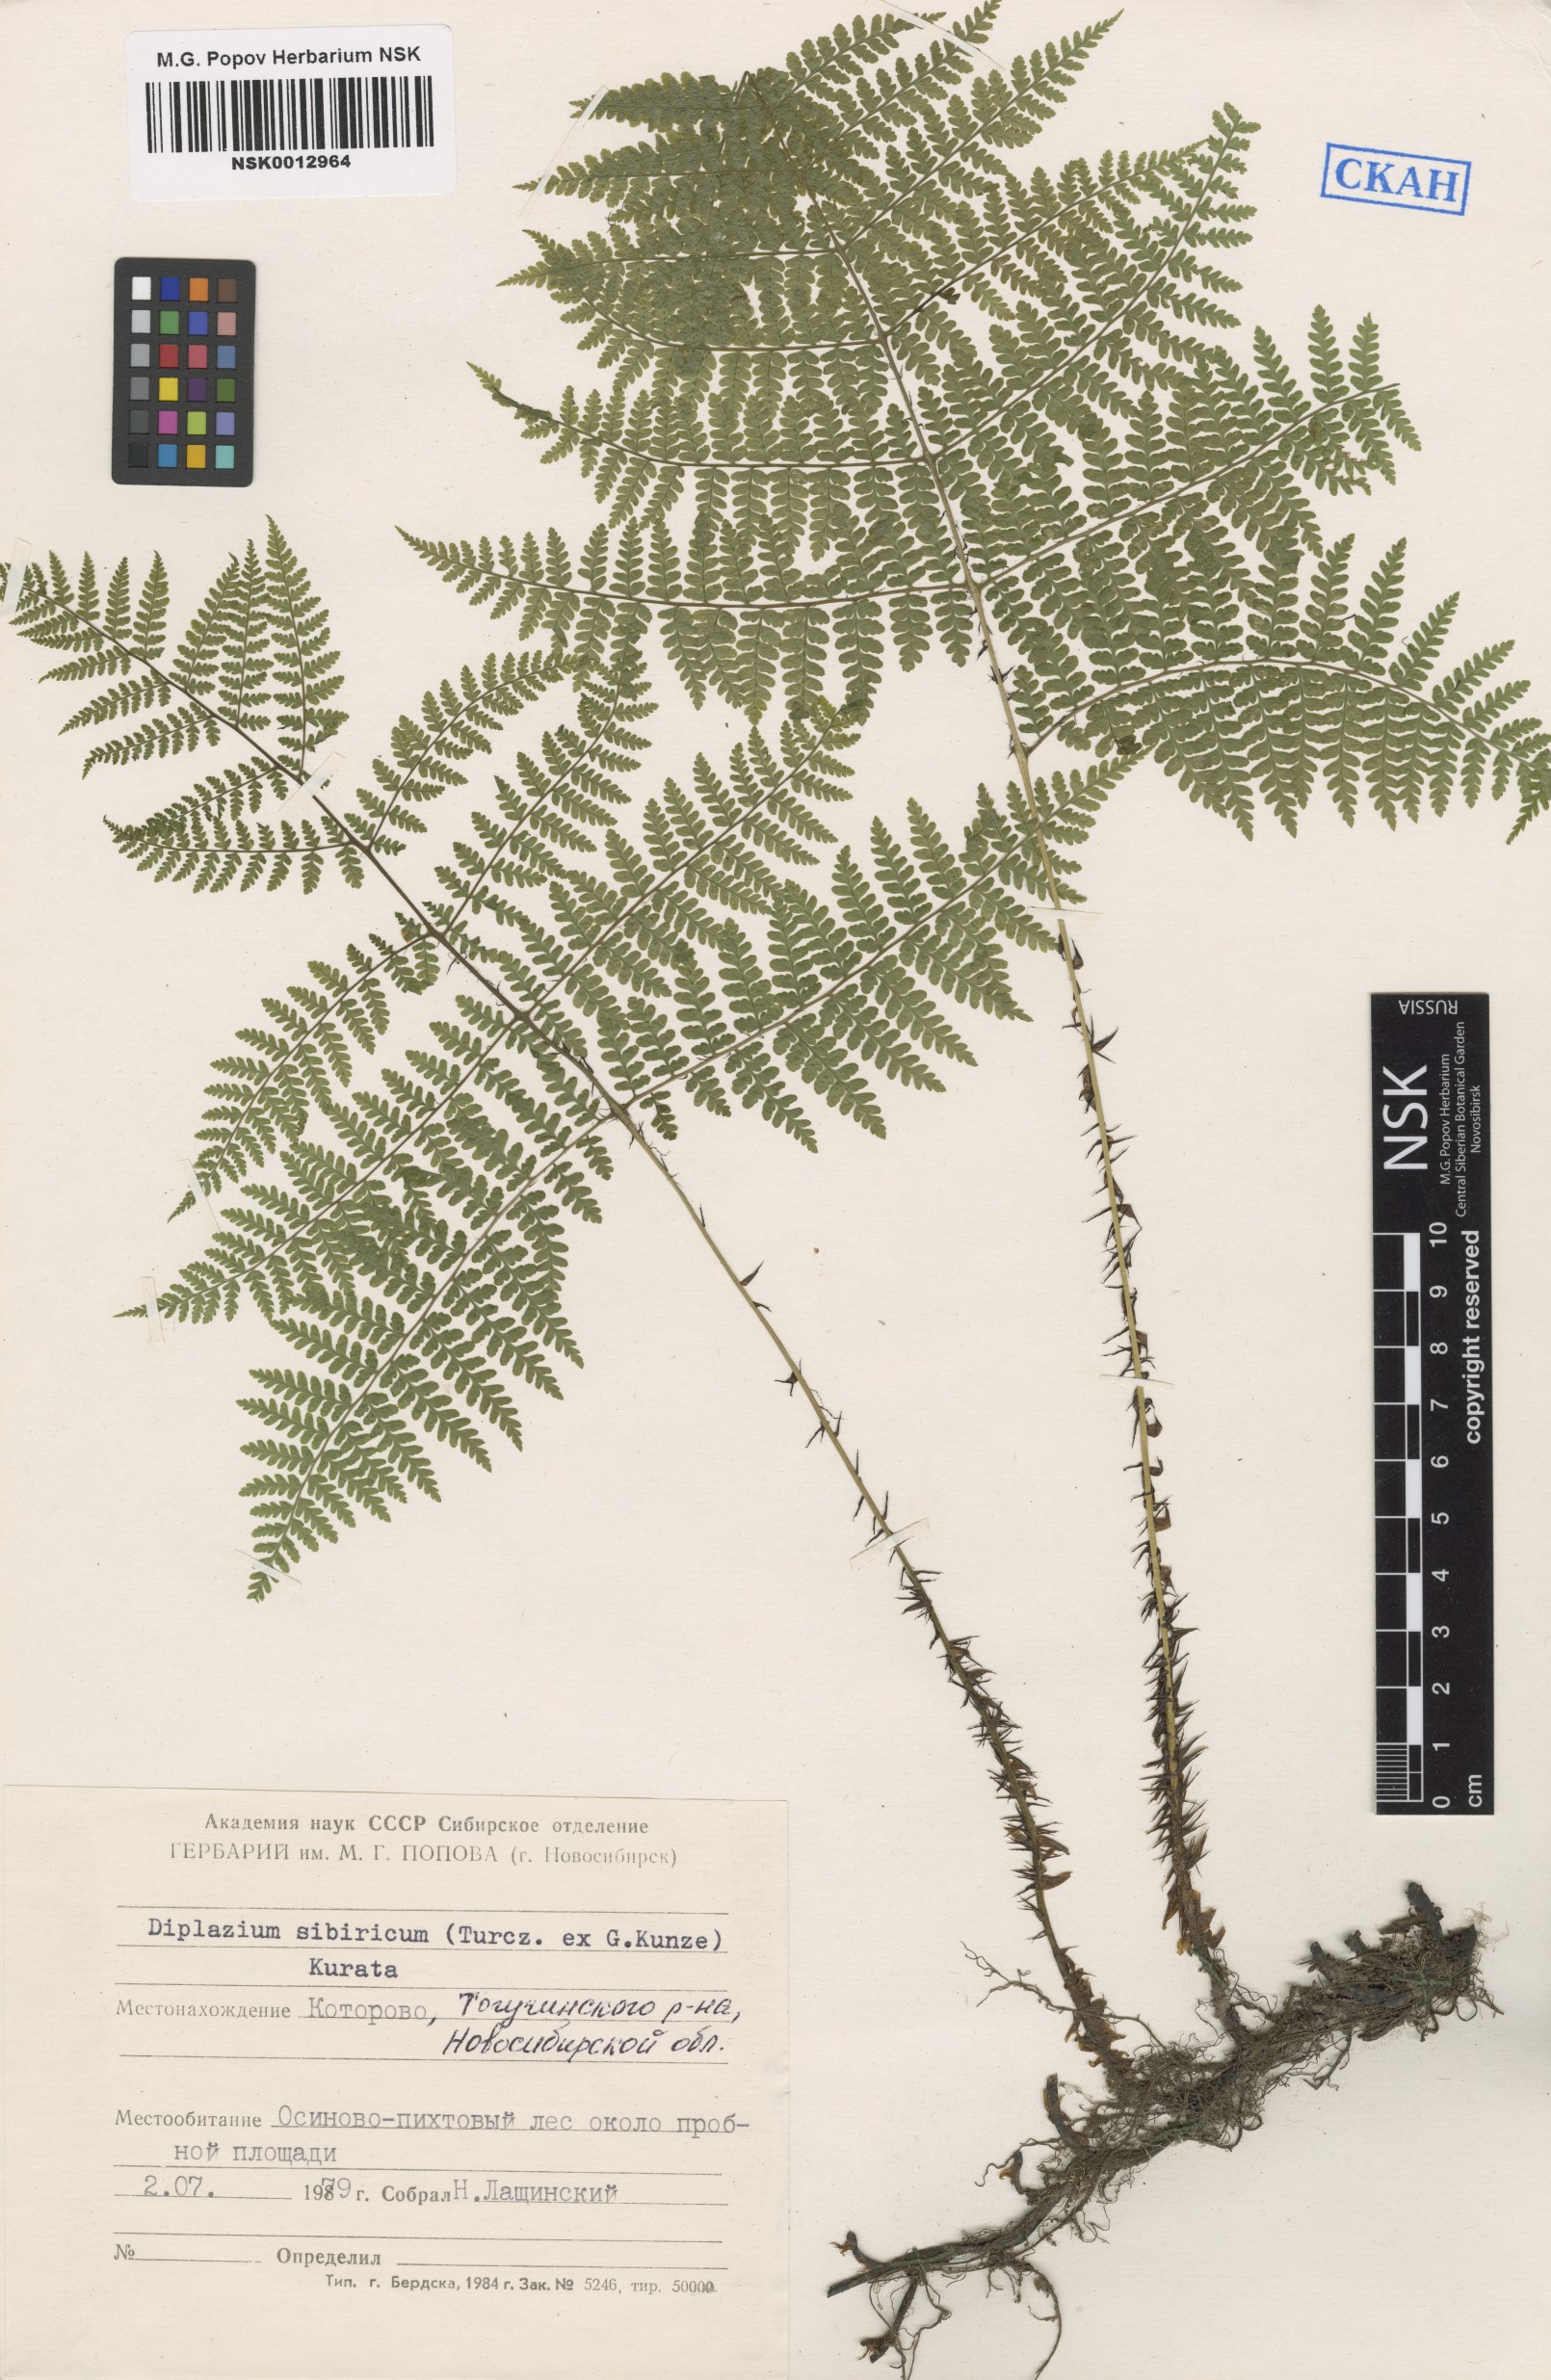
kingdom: Plantae
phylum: Tracheophyta
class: Polypodiopsida
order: Polypodiales
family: Athyriaceae
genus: Diplazium
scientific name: Diplazium sibiricum
